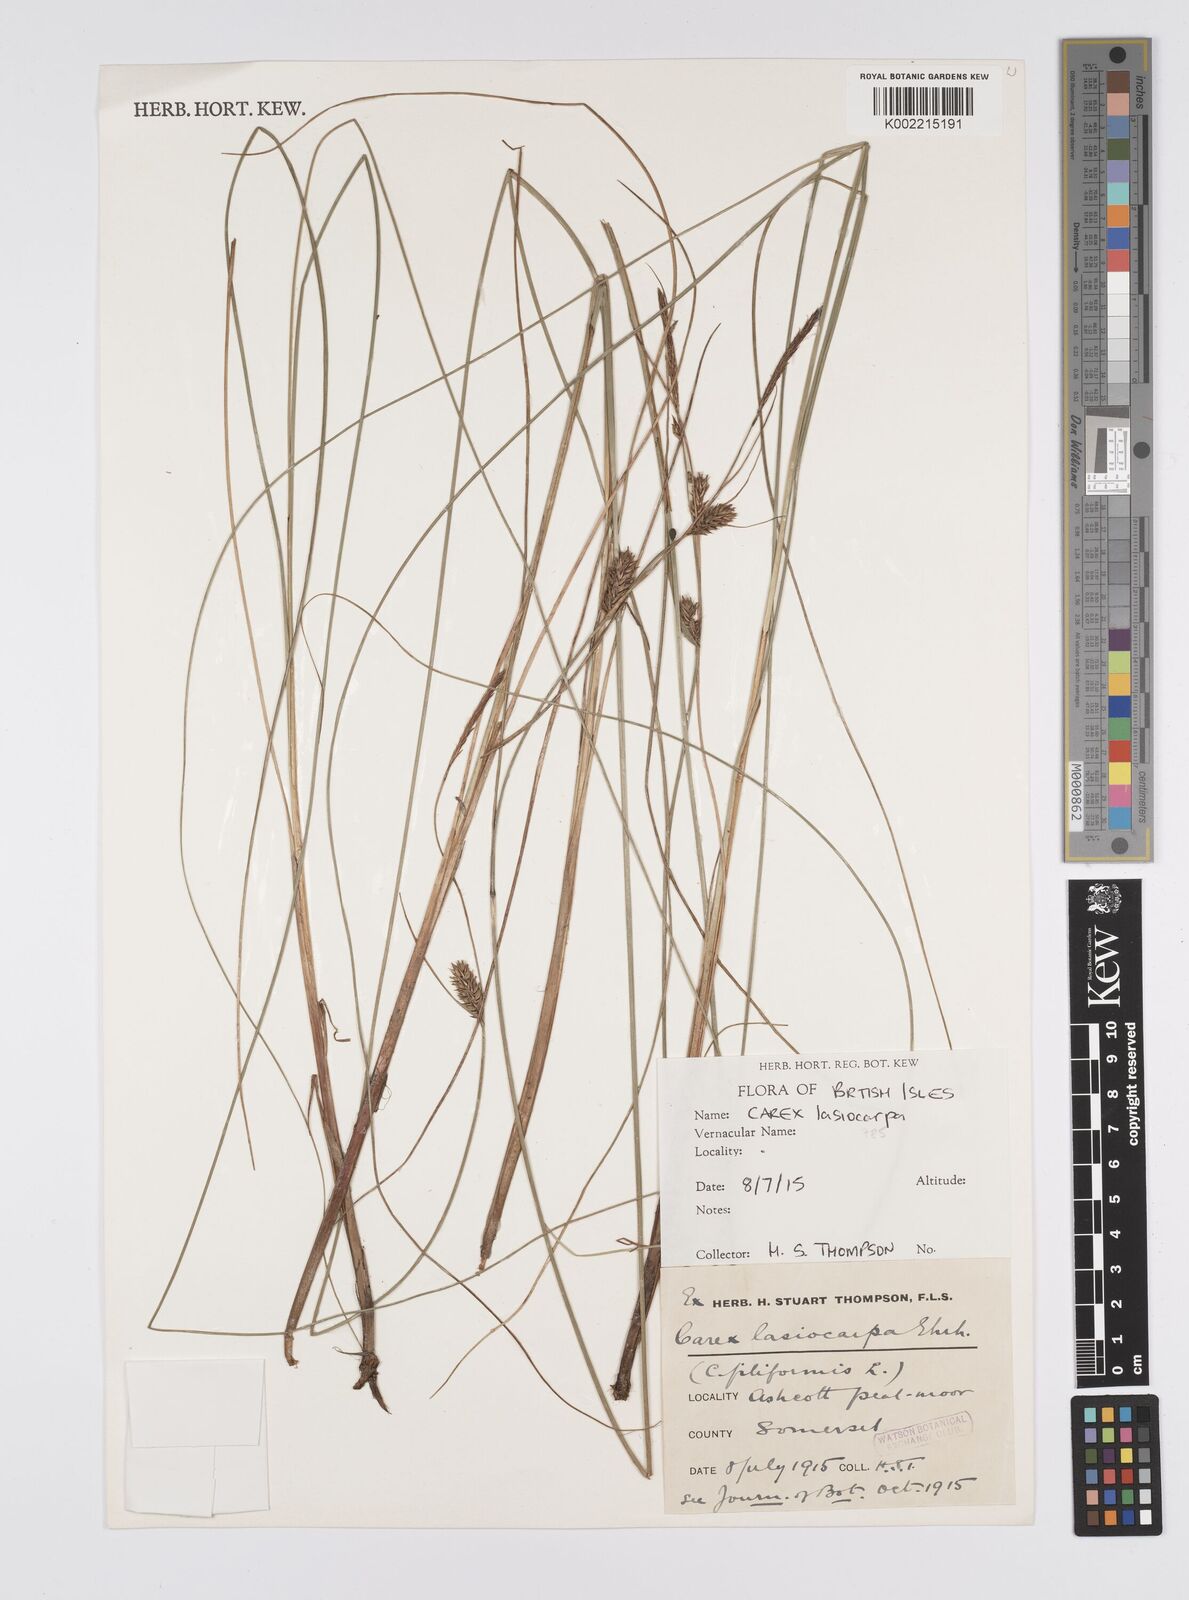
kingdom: Plantae
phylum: Tracheophyta
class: Liliopsida
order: Poales
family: Cyperaceae
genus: Carex
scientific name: Carex lasiocarpa
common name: Slender sedge
